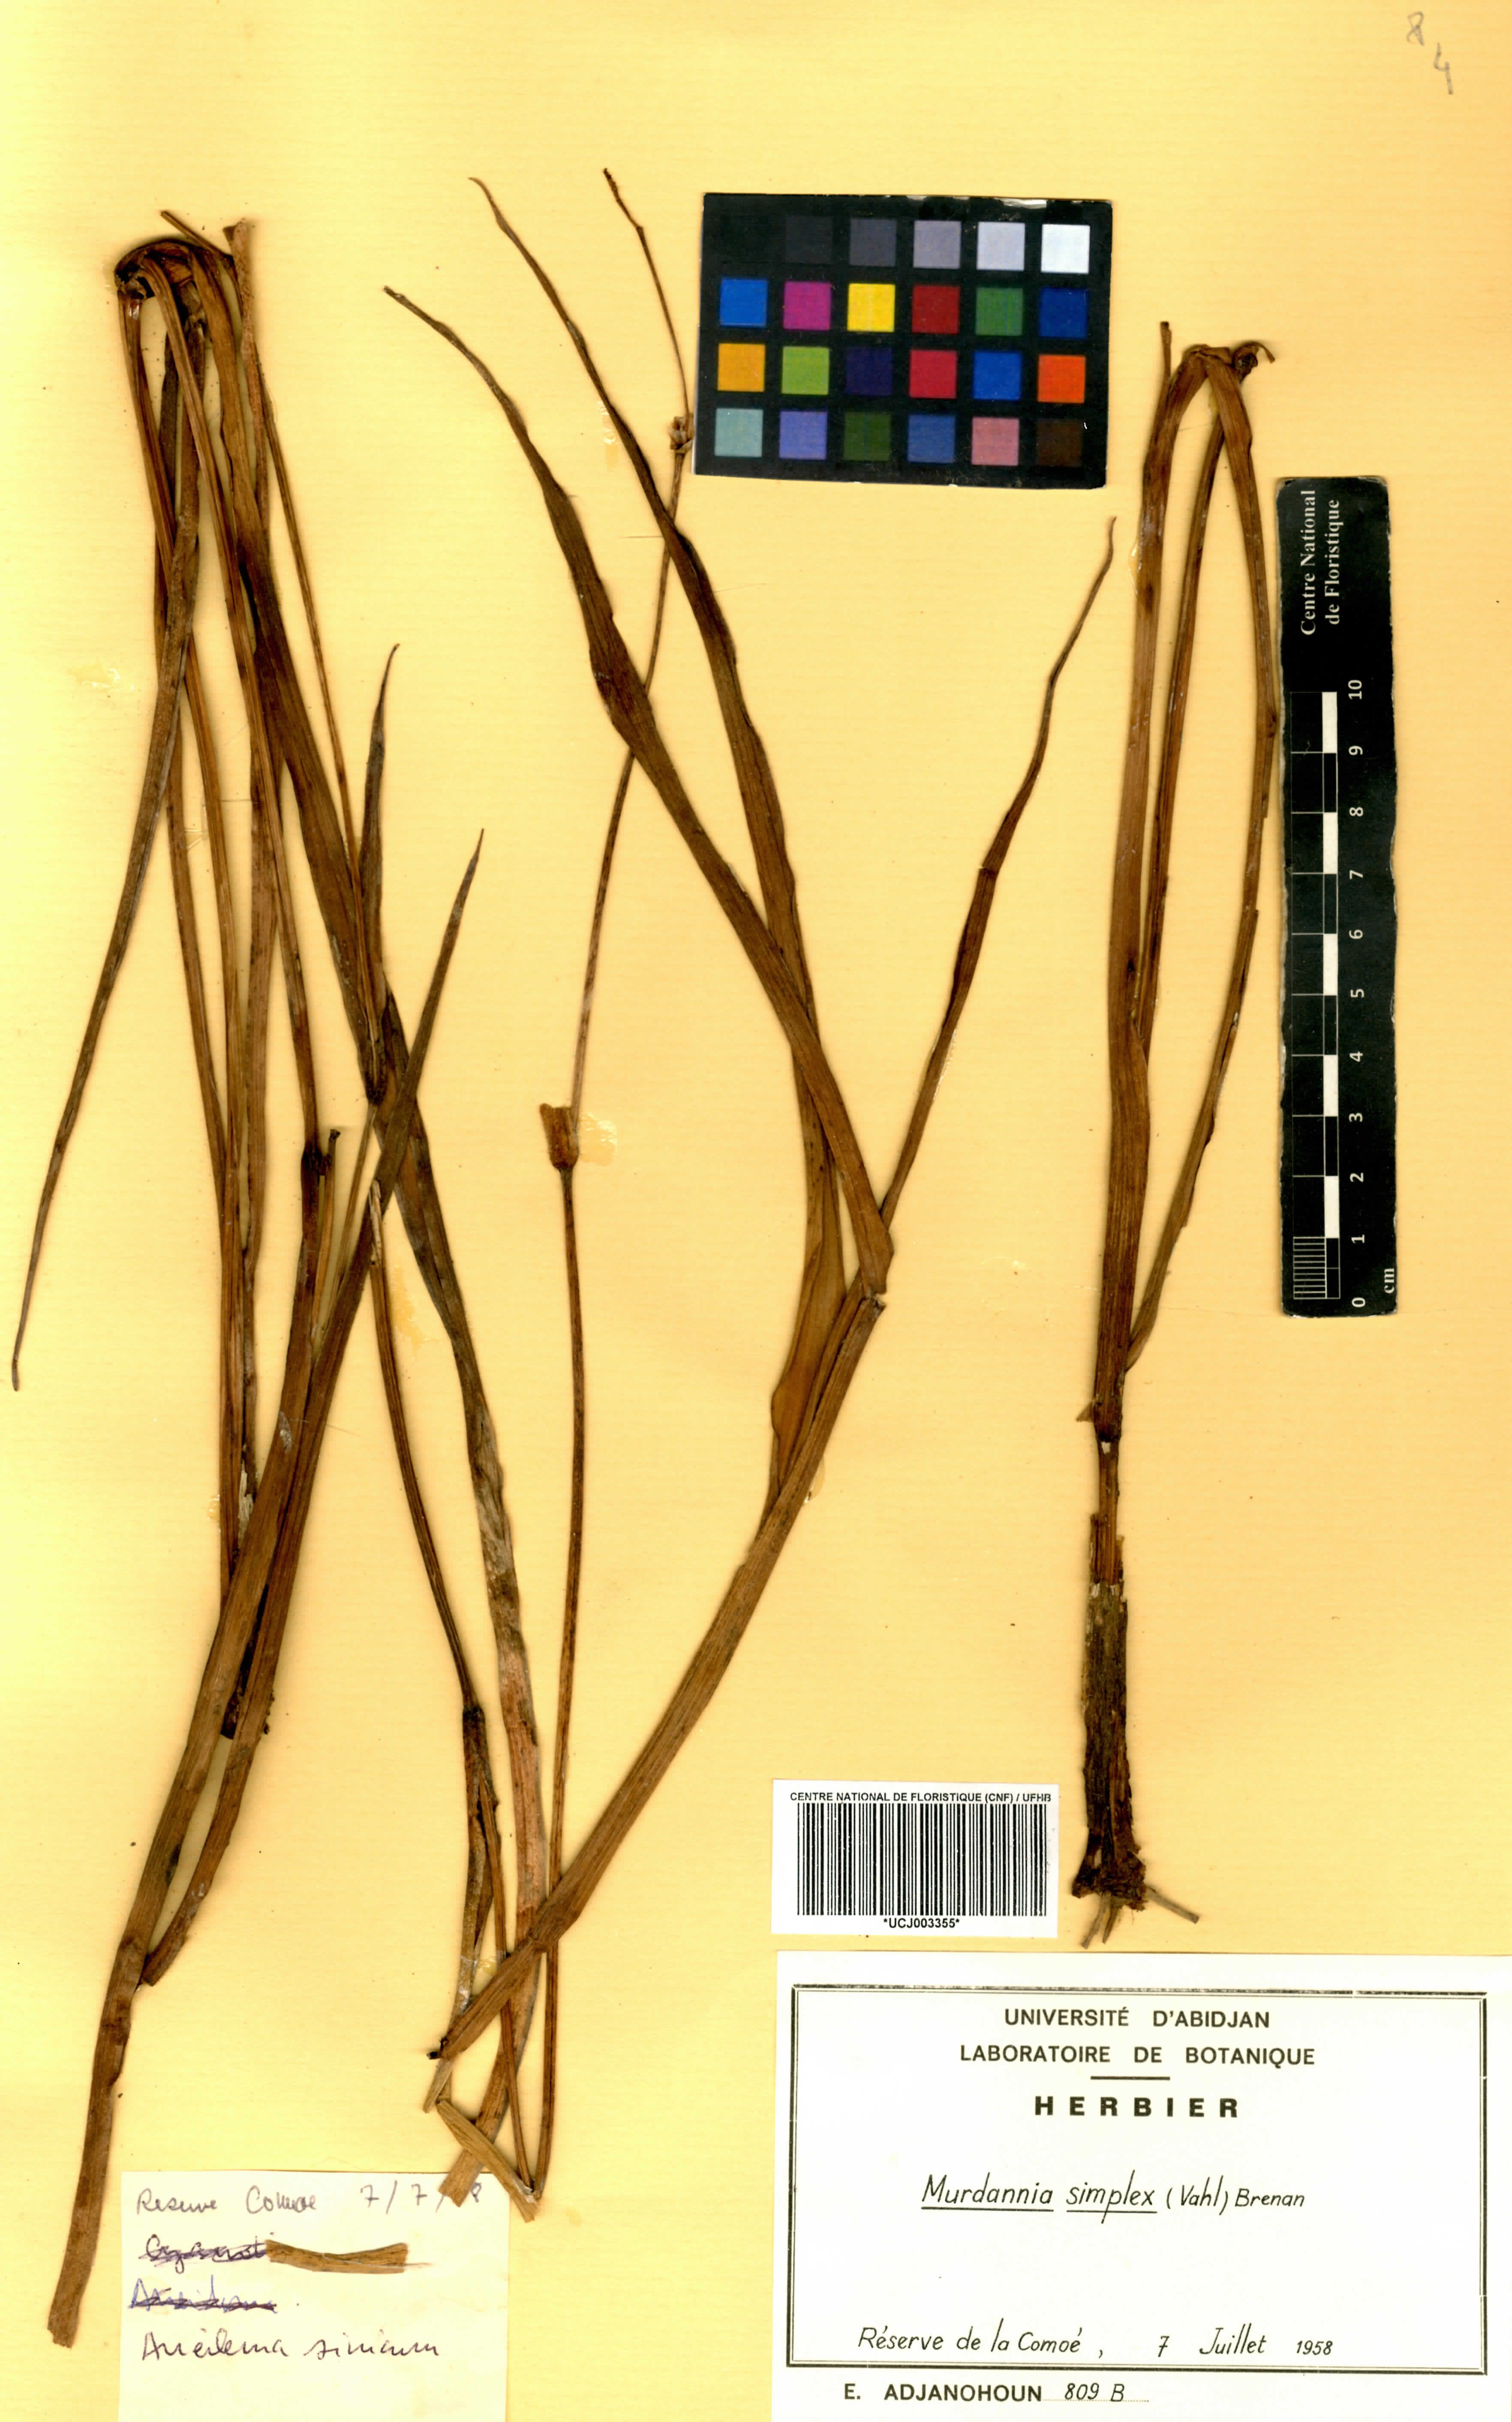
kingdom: Plantae
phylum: Tracheophyta
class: Liliopsida
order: Commelinales
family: Commelinaceae
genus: Murdannia
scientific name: Murdannia simplex
